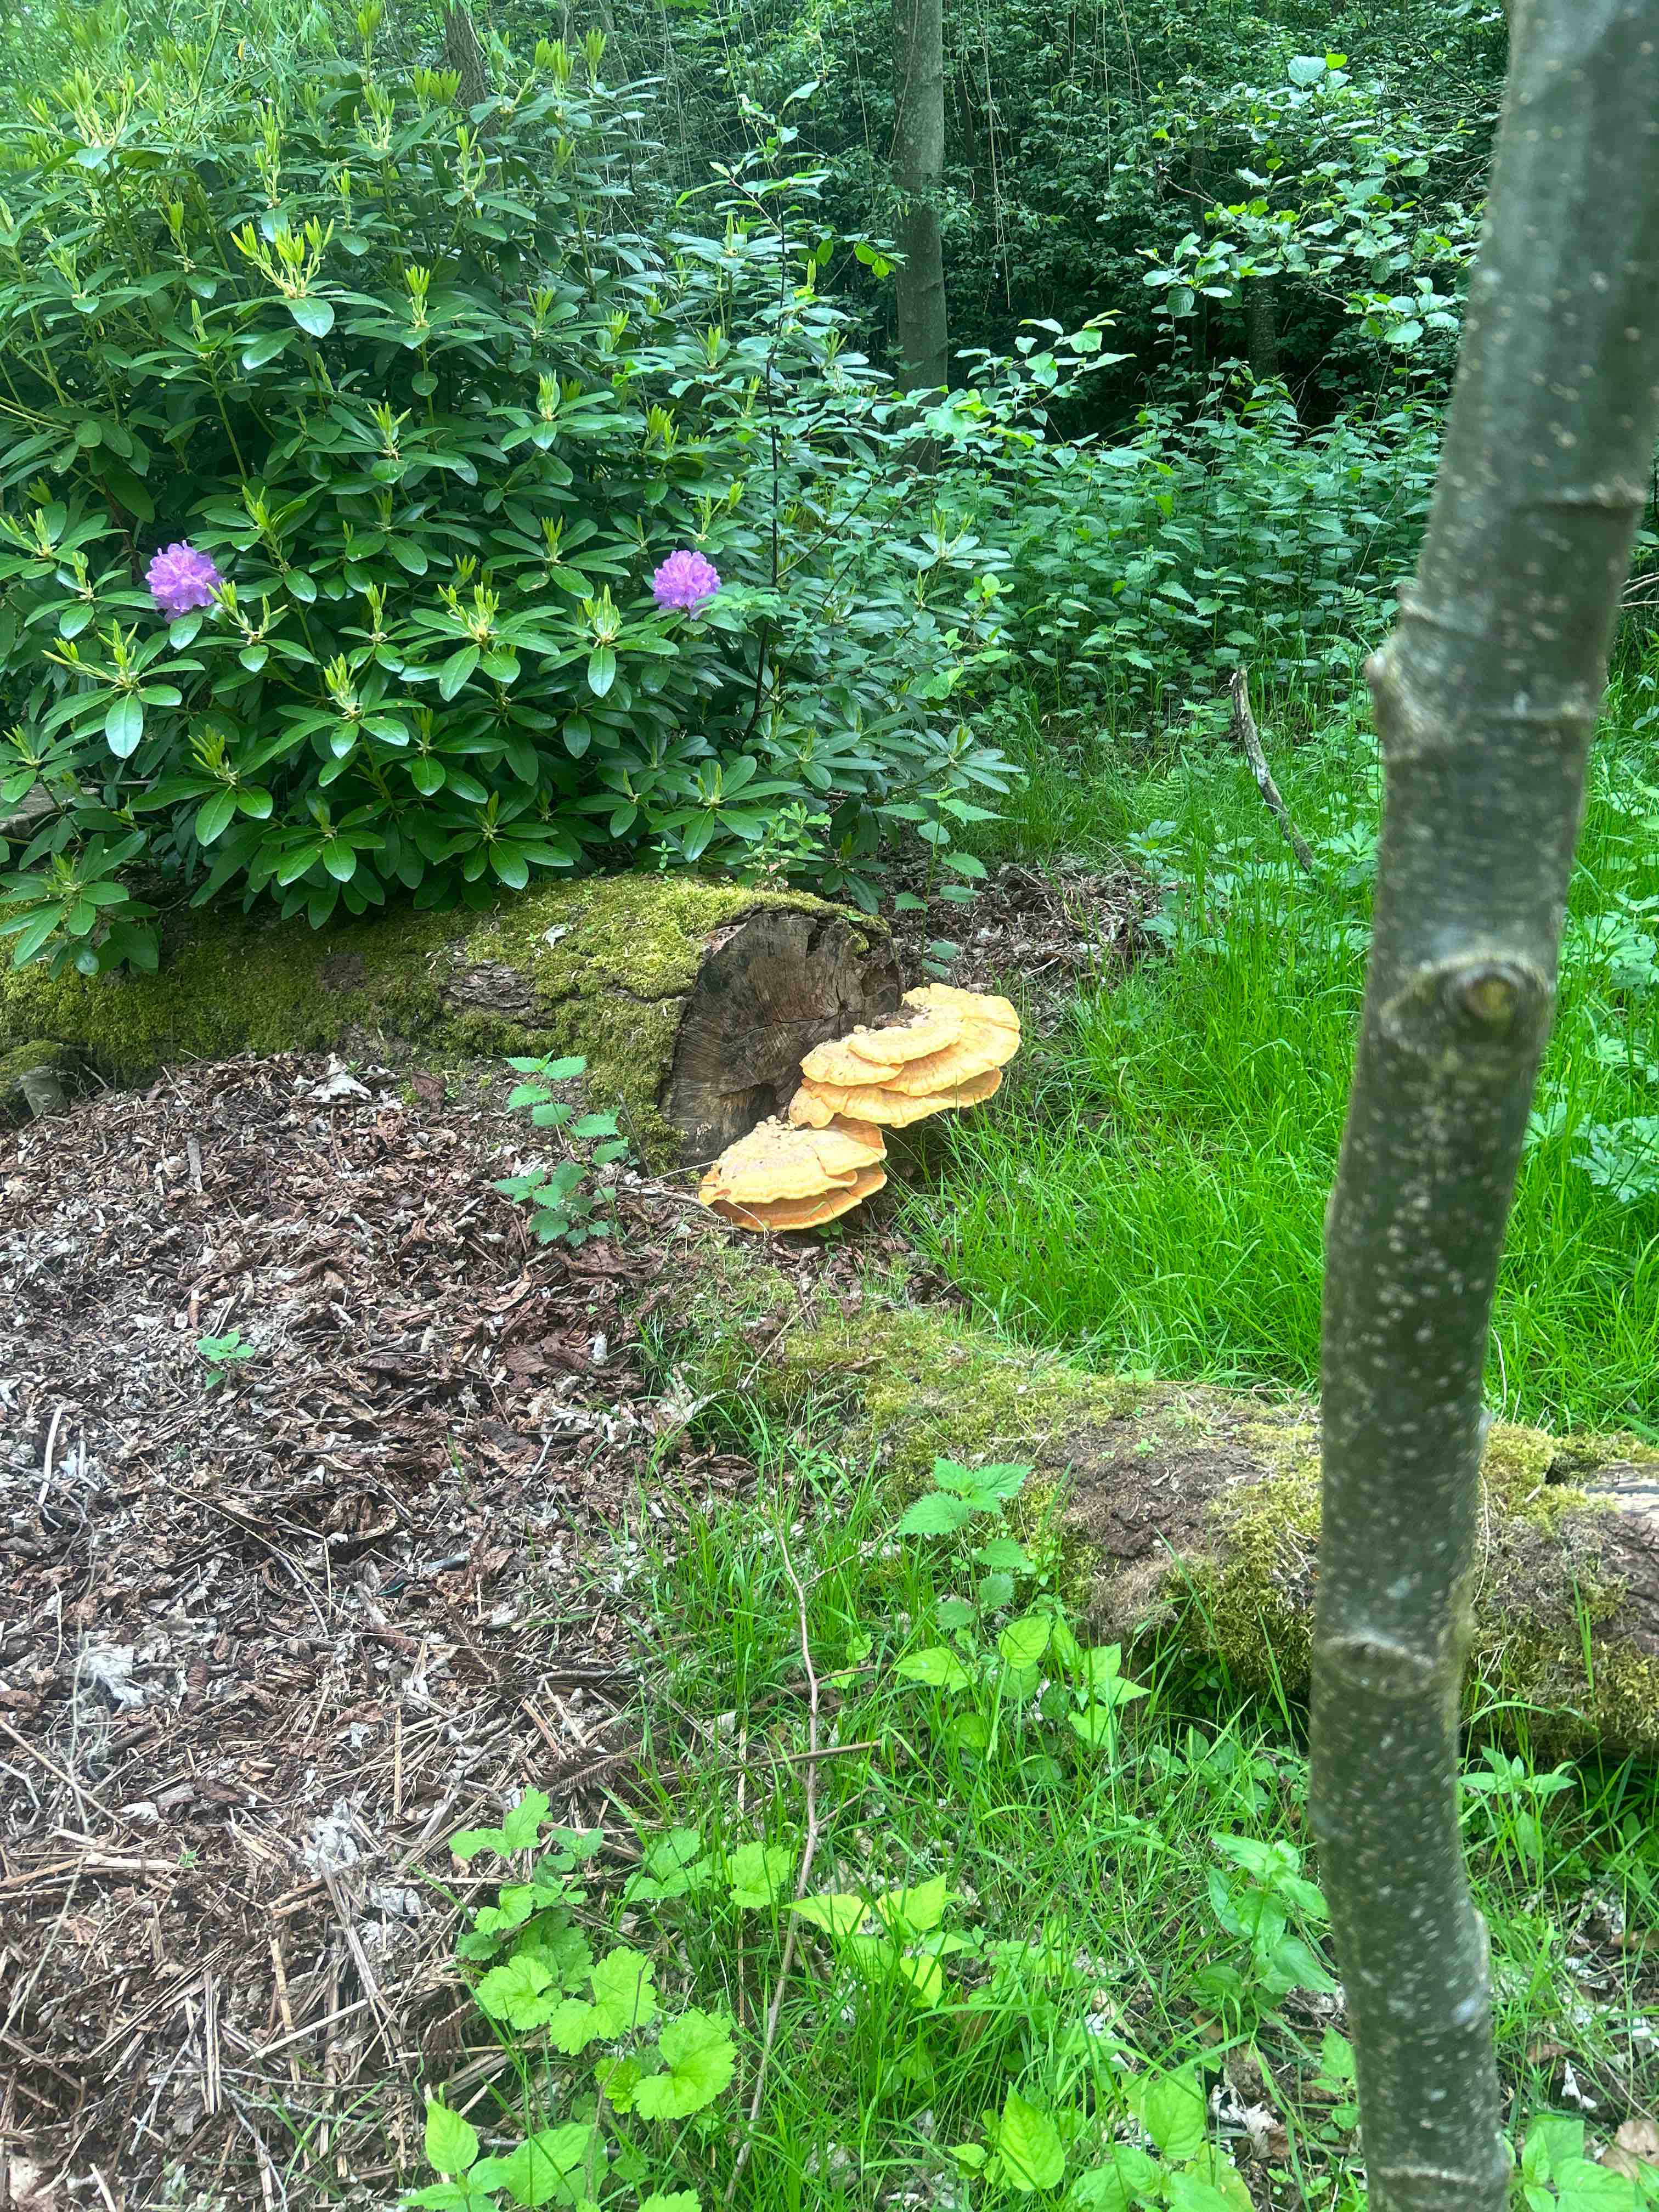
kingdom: Fungi
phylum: Basidiomycota
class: Agaricomycetes
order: Polyporales
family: Laetiporaceae
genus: Laetiporus
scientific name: Laetiporus sulphureus
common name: svovlporesvamp
